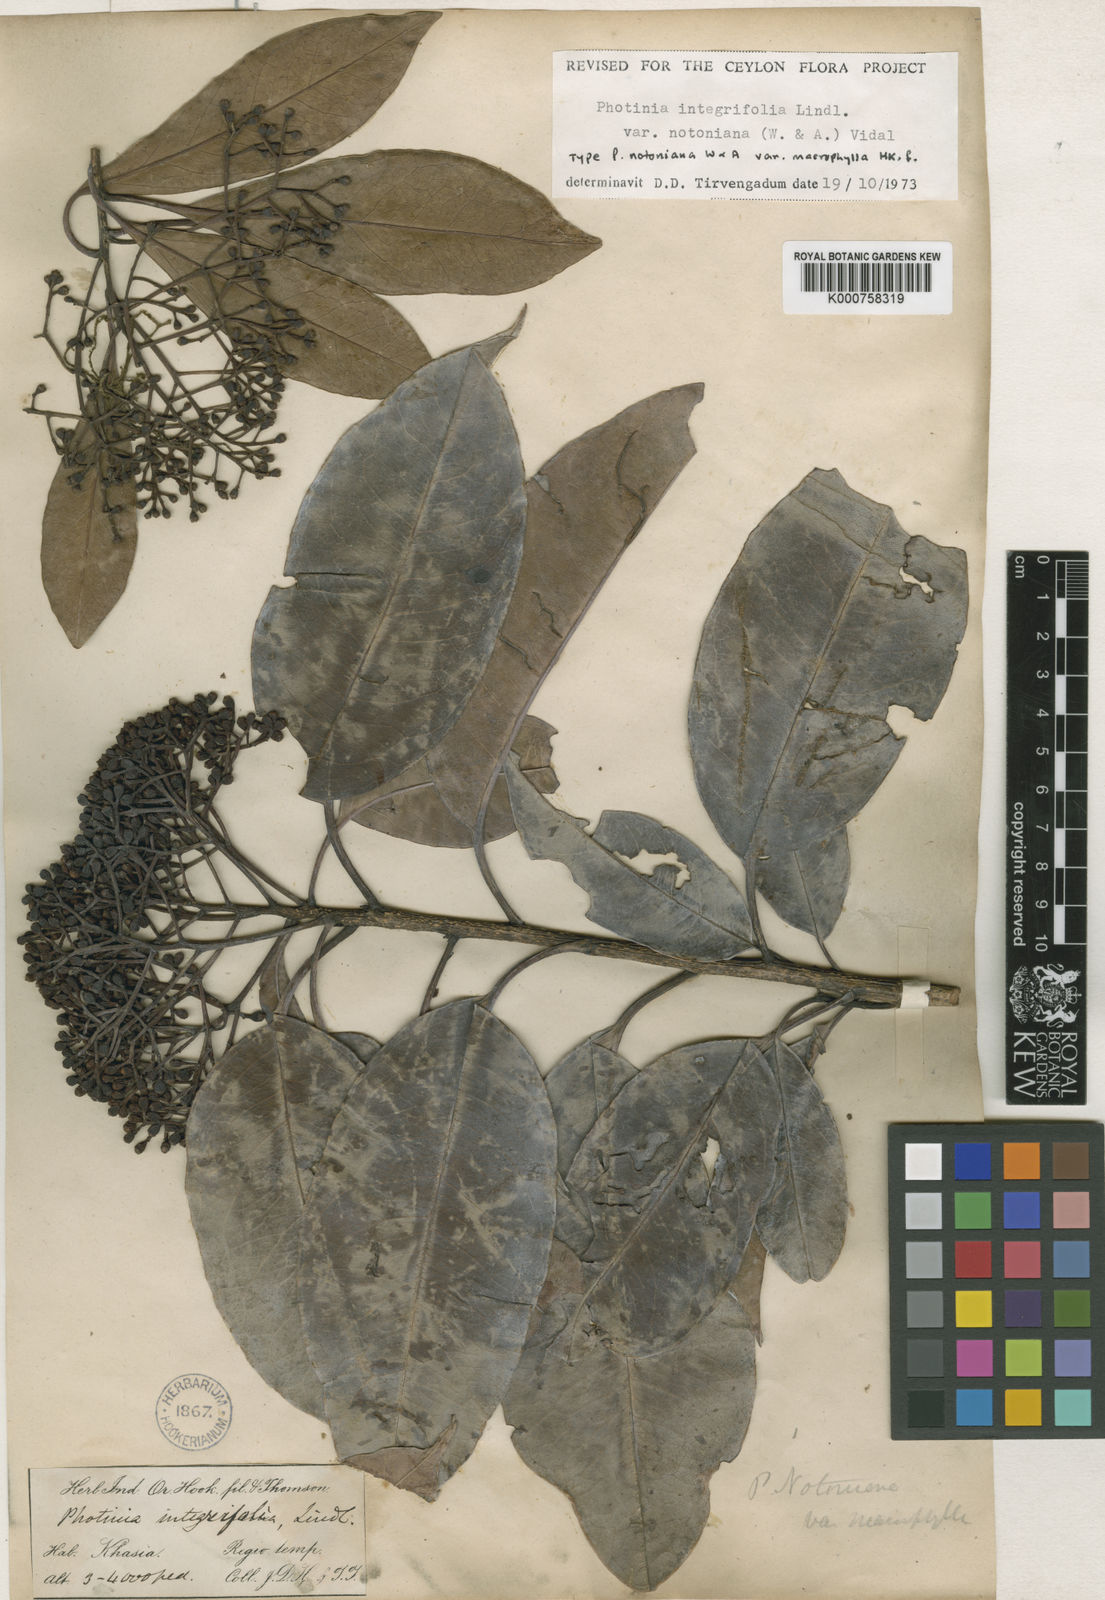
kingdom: Plantae
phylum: Tracheophyta
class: Magnoliopsida
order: Rosales
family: Rosaceae
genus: Photinia
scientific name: Photinia integrifolia
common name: Himalayan chokeberry
